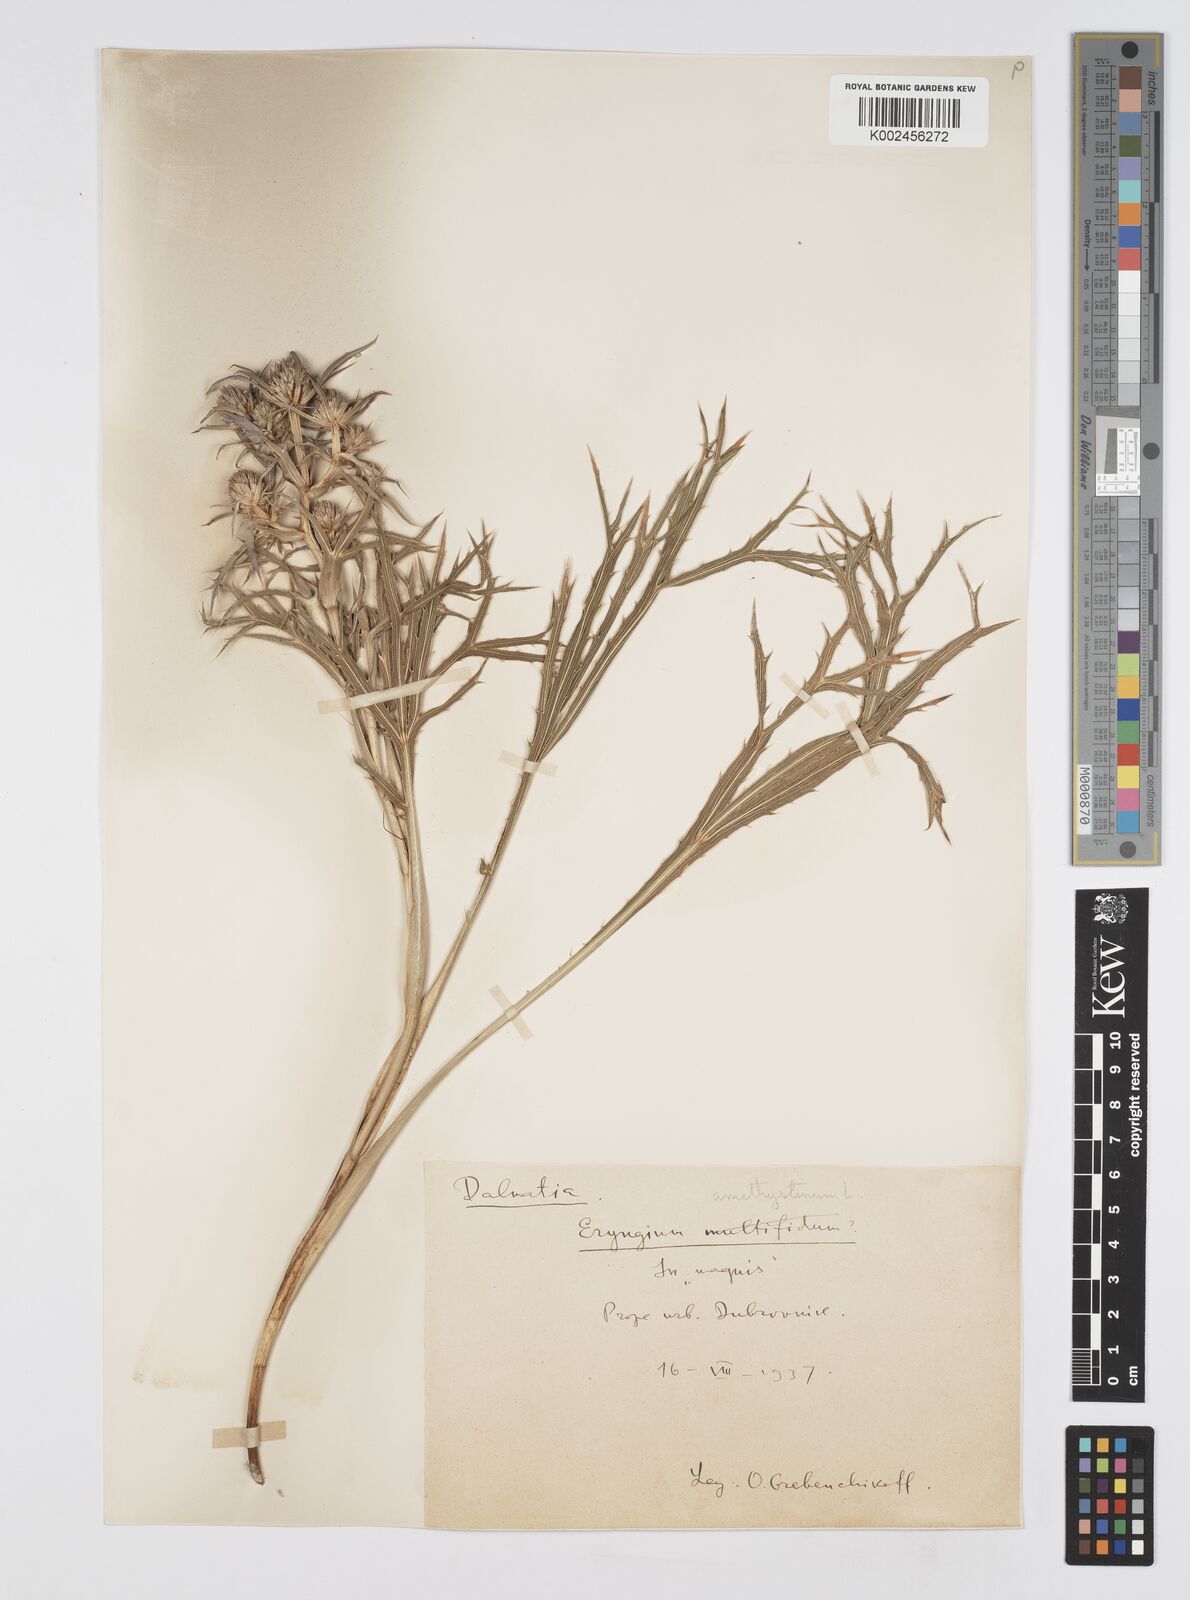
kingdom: Plantae
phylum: Tracheophyta
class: Magnoliopsida
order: Apiales
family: Apiaceae
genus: Eryngium
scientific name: Eryngium amethystinum
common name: Amethyst eryngo
